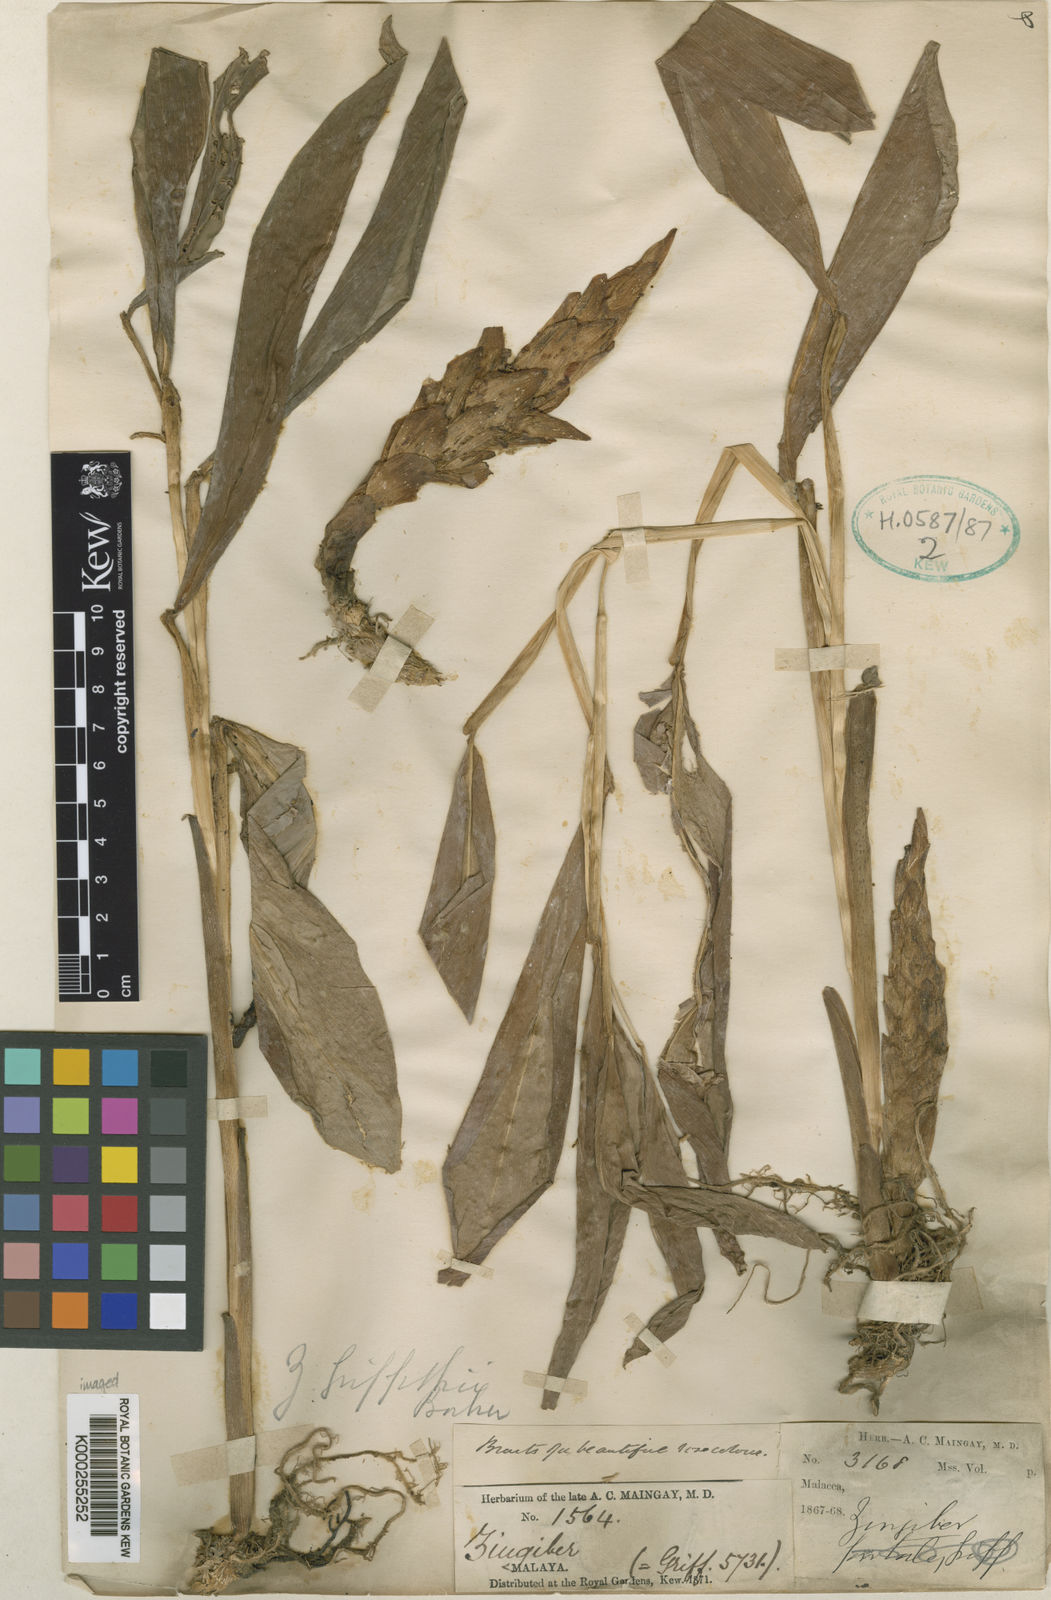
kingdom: Plantae
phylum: Tracheophyta
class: Liliopsida
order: Zingiberales
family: Zingiberaceae
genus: Zingiber
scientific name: Zingiber griffithii
